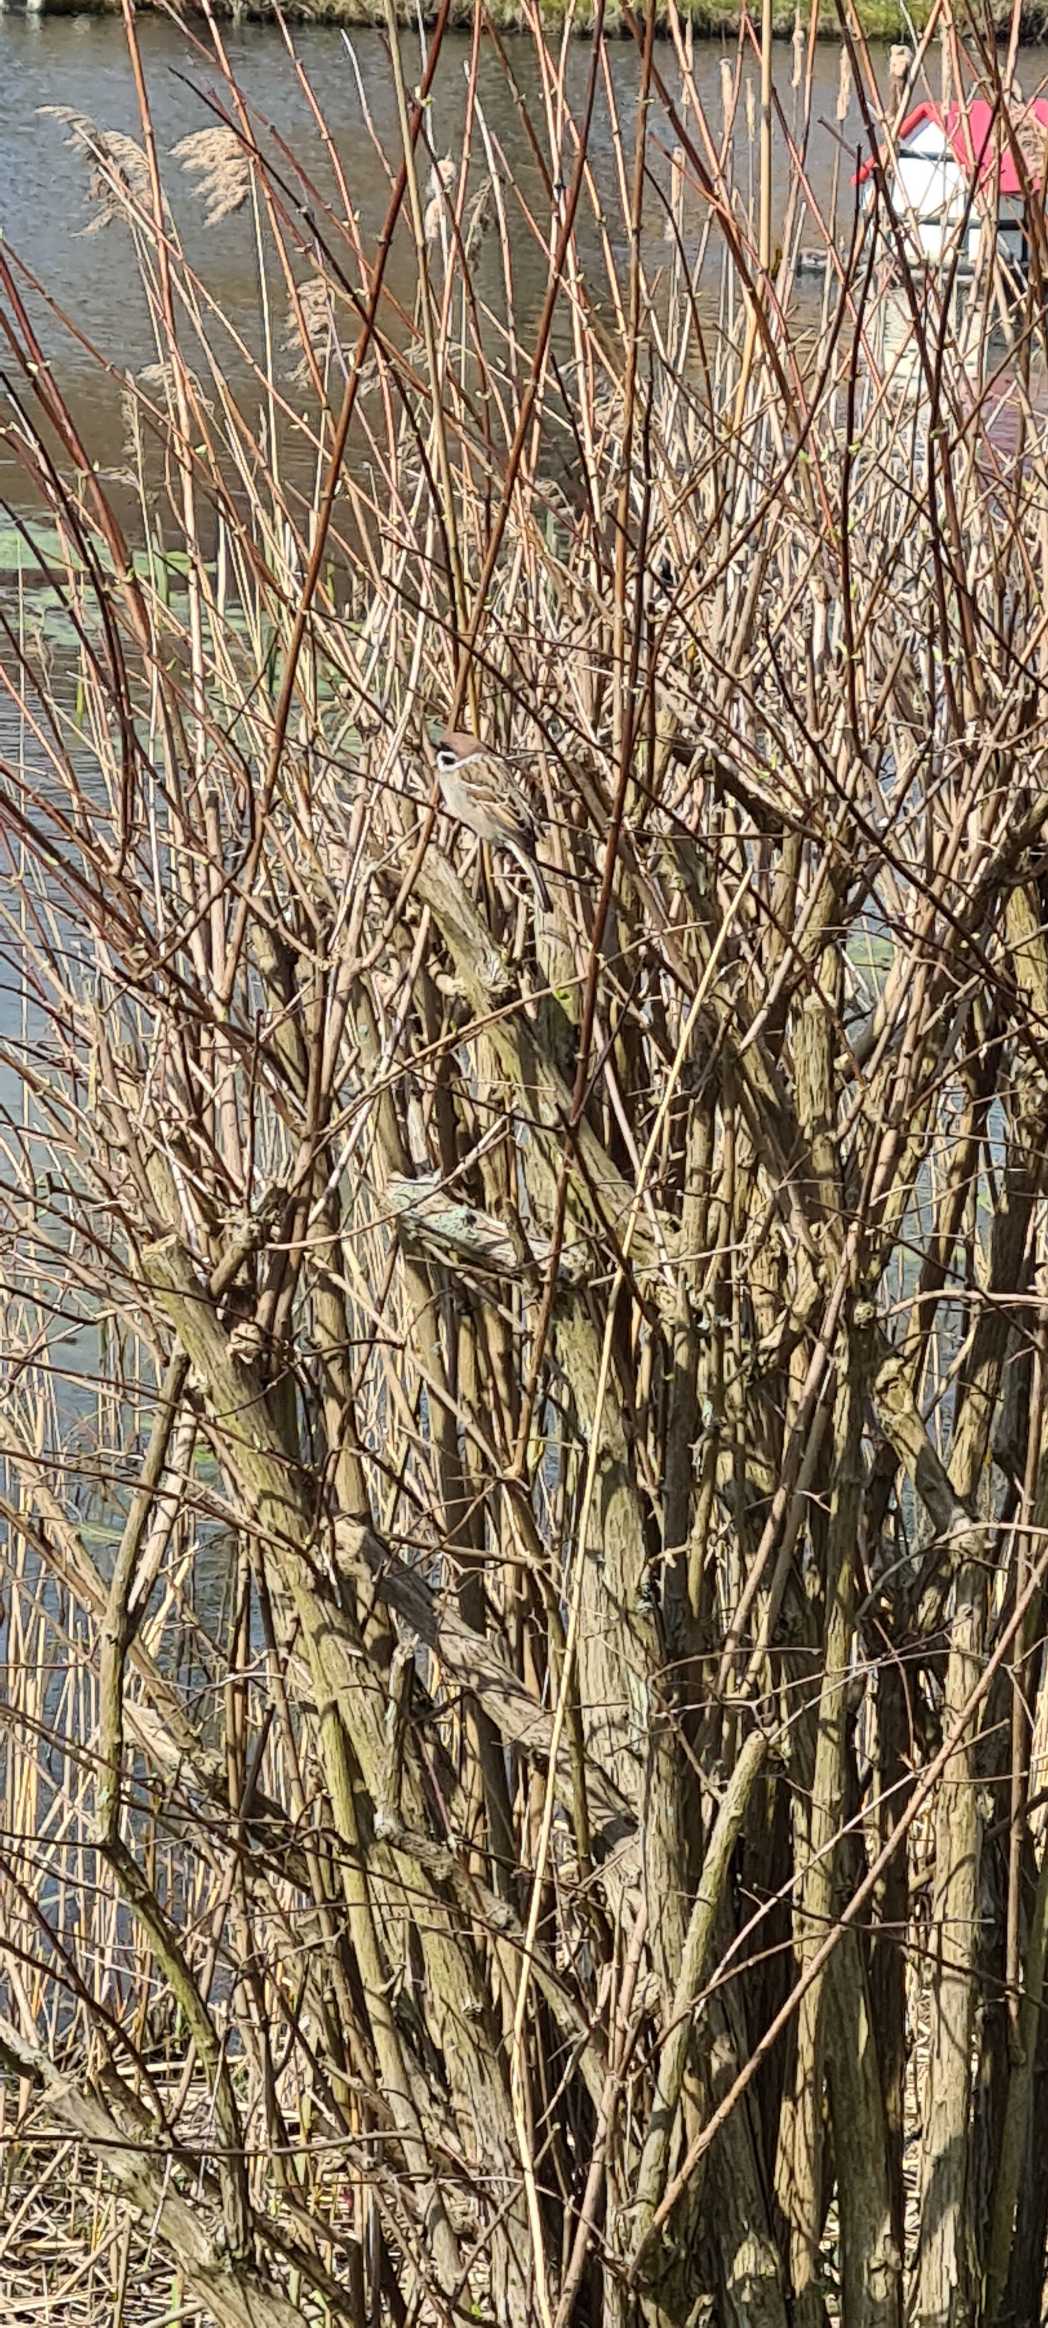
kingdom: Animalia
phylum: Chordata
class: Aves
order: Passeriformes
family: Passeridae
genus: Passer
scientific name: Passer montanus
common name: Skovspurv
